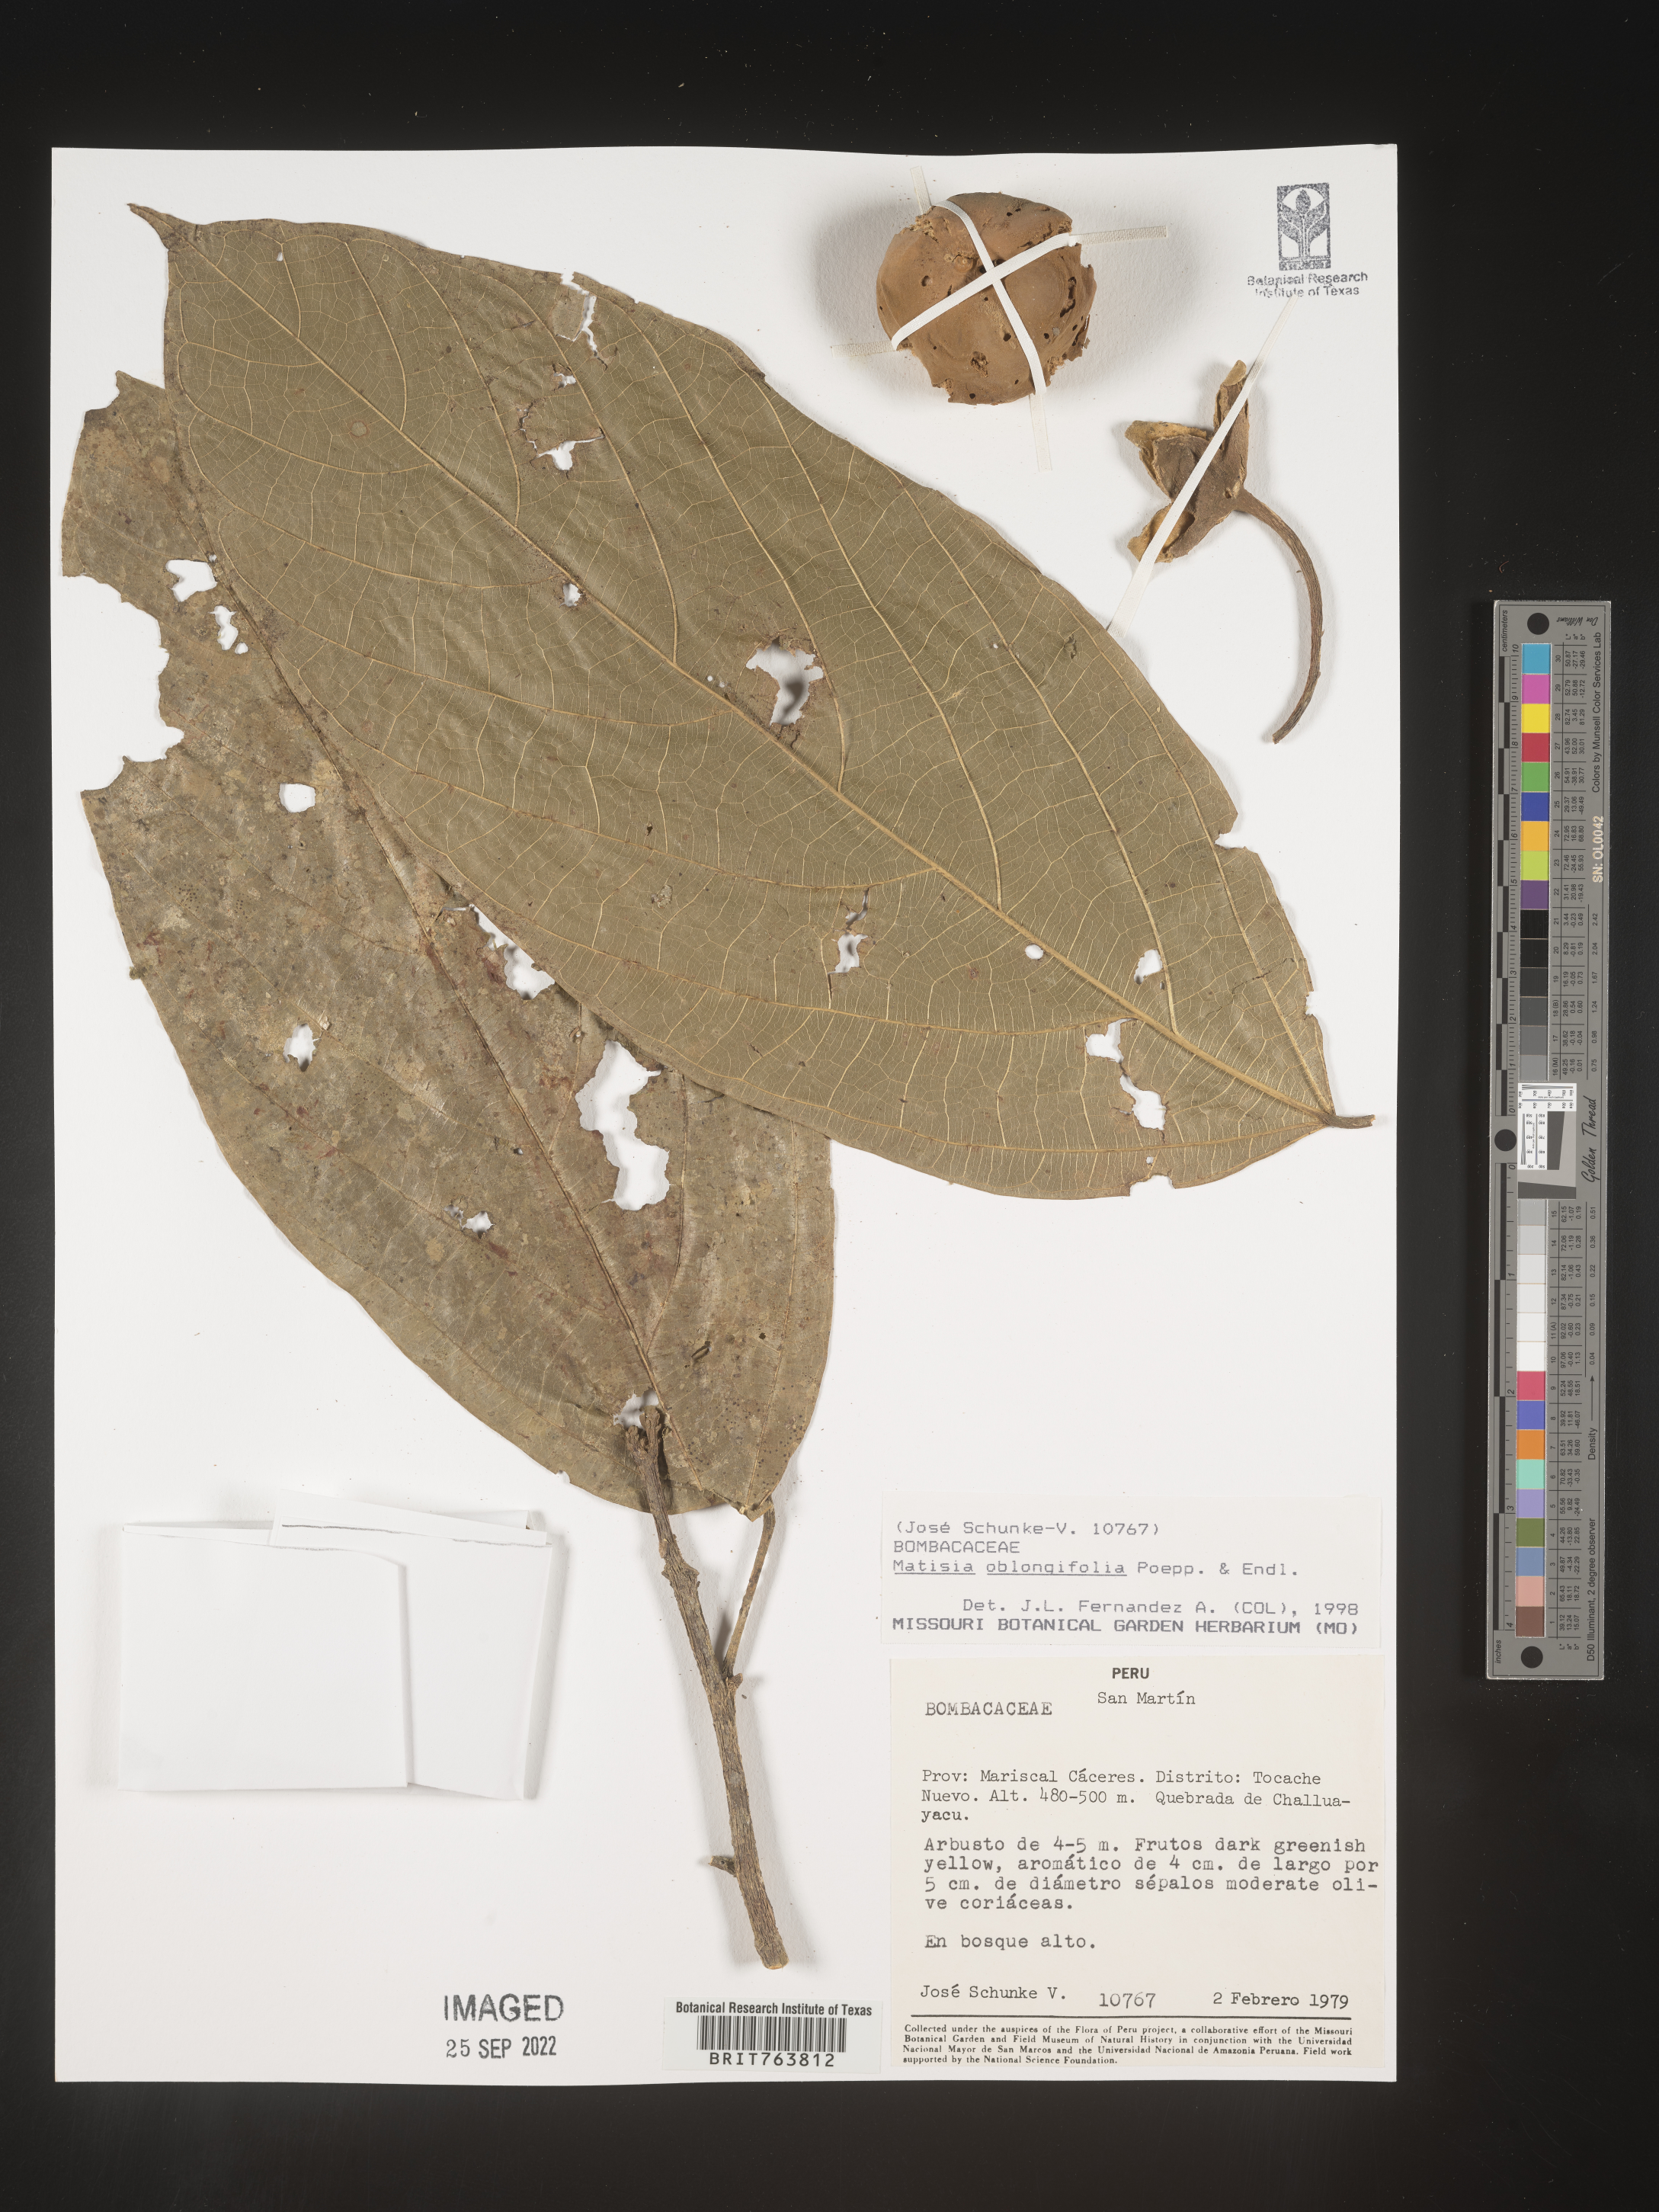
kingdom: Plantae
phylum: Tracheophyta
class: Magnoliopsida
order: Malvales
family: Malvaceae
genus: Matisia
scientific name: Matisia
